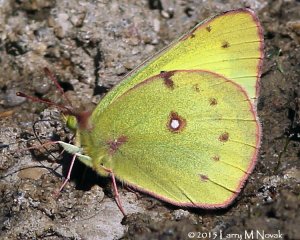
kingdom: Animalia
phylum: Arthropoda
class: Insecta
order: Lepidoptera
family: Pieridae
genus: Colias
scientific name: Colias philodice
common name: Clouded Sulphur
